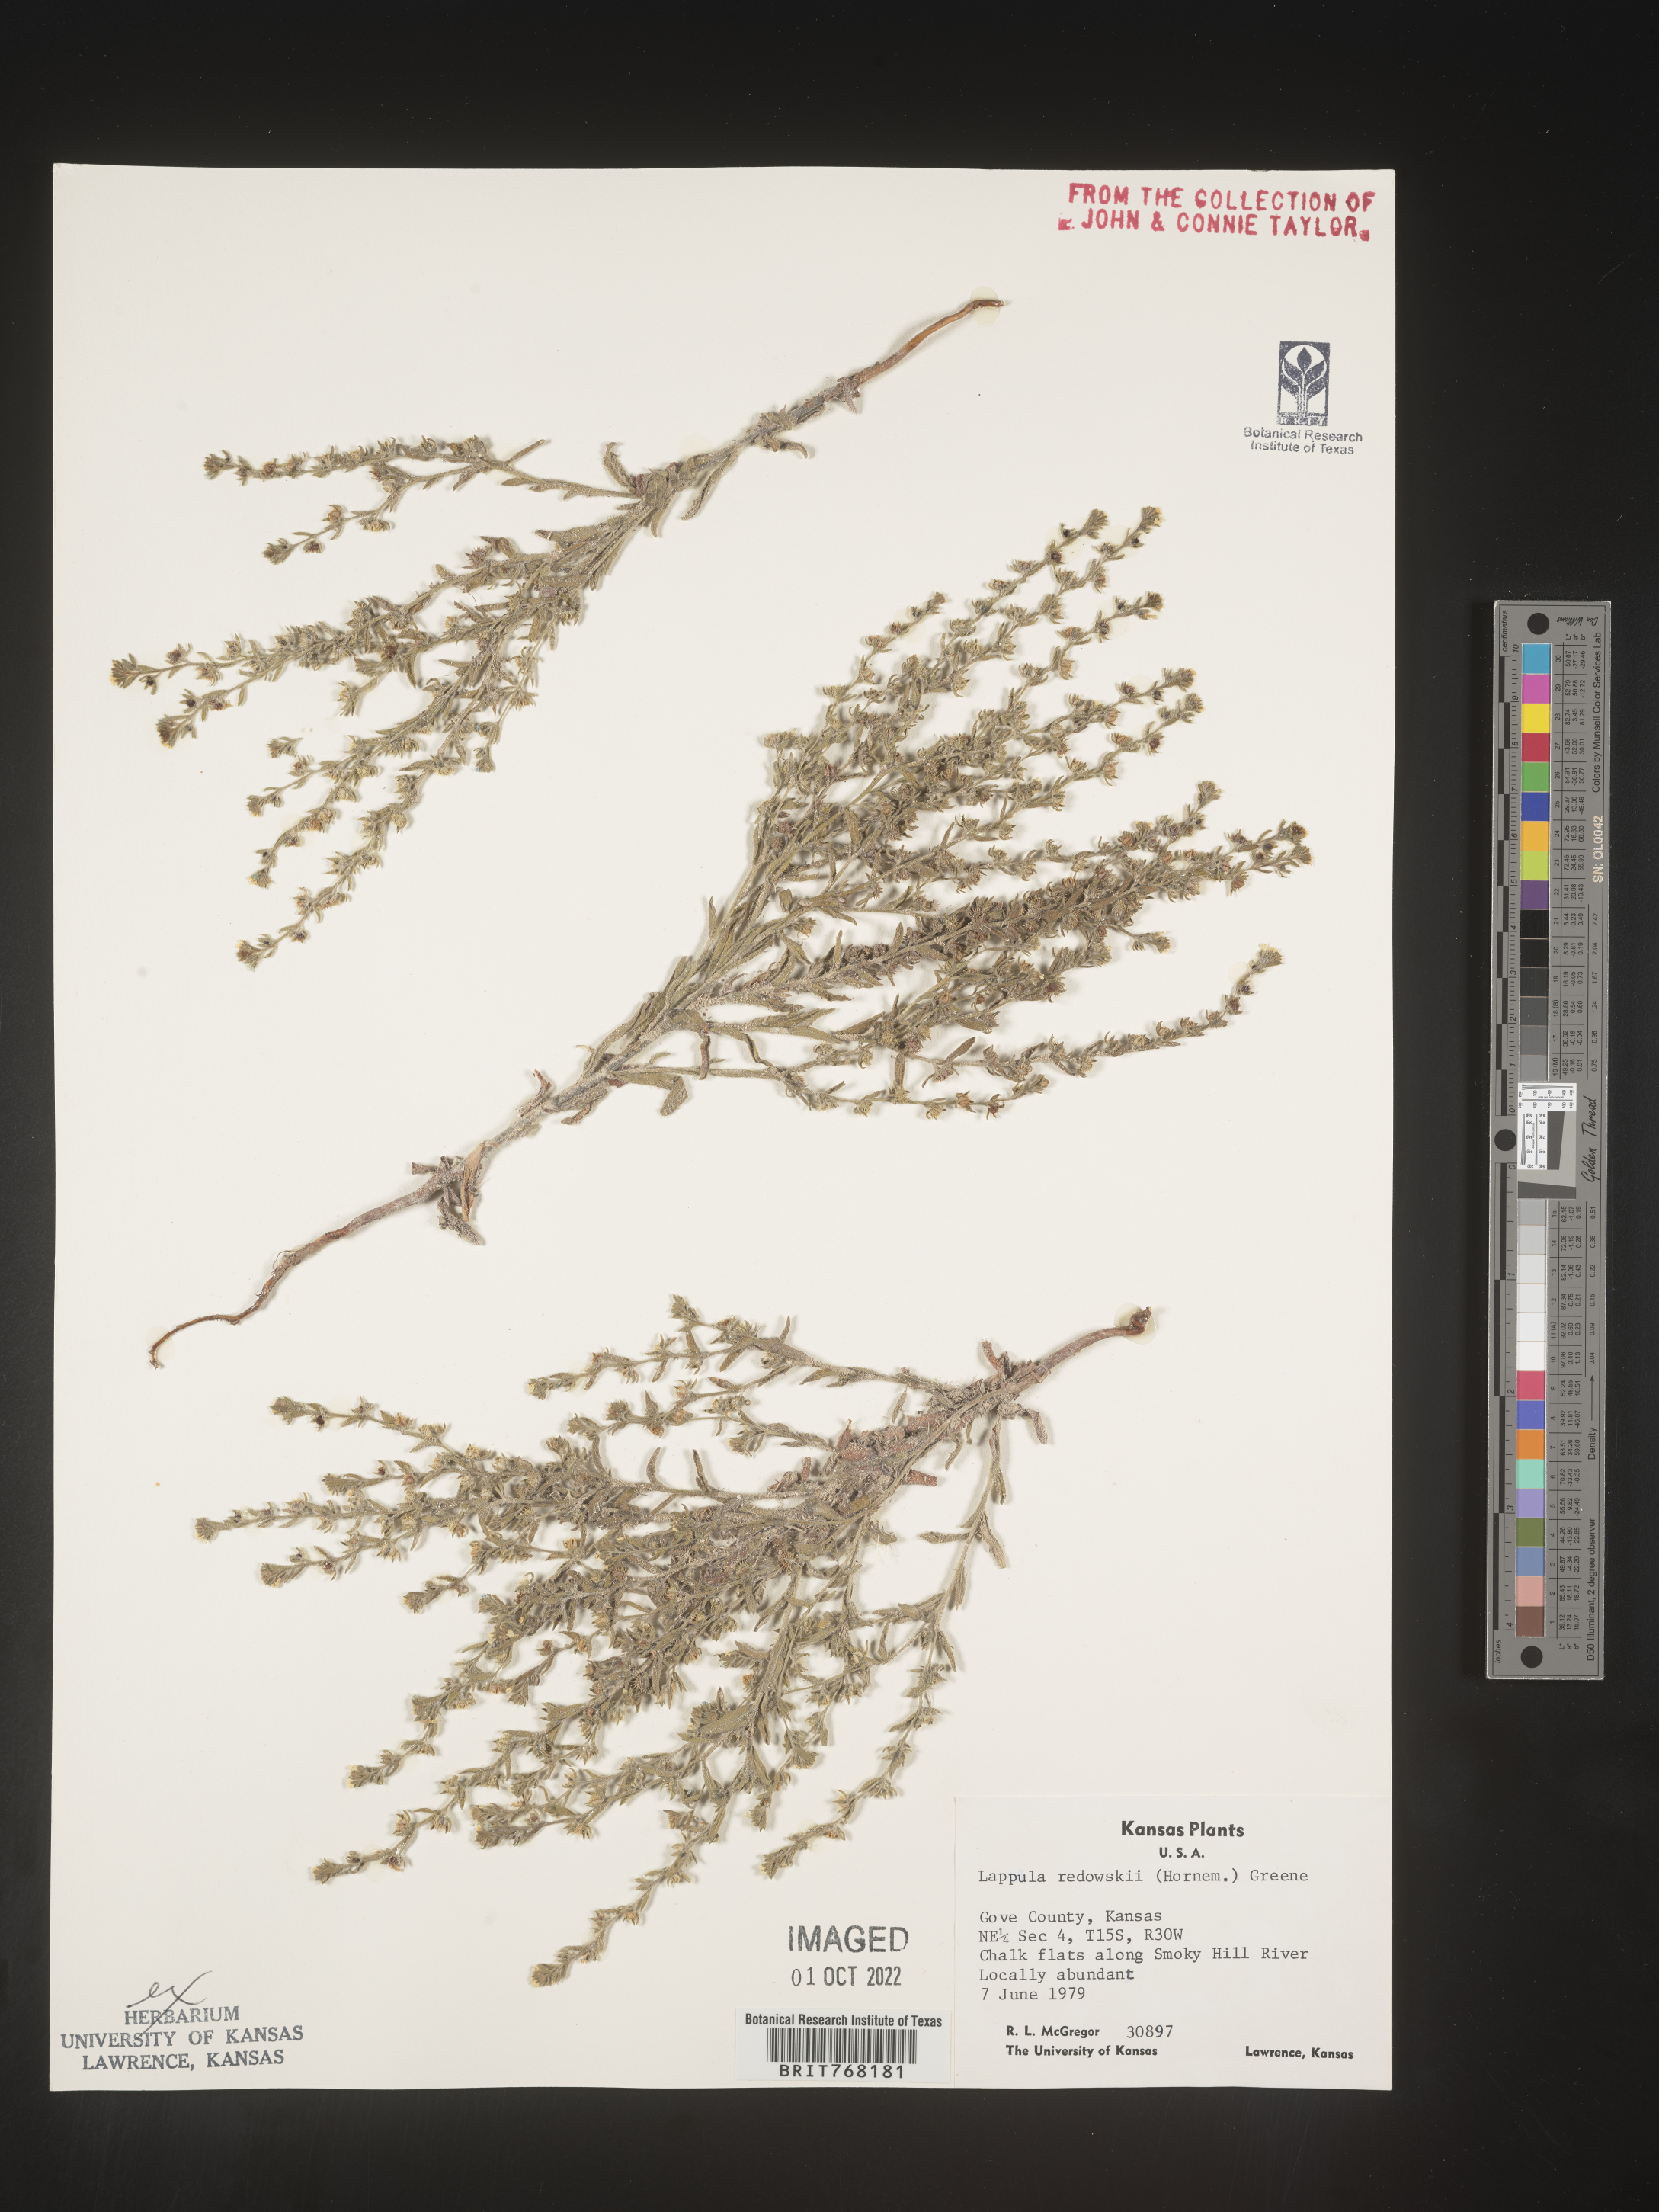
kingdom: Plantae
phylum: Tracheophyta
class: Magnoliopsida
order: Boraginales
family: Boraginaceae
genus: Lappula
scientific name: Lappula redowskii
